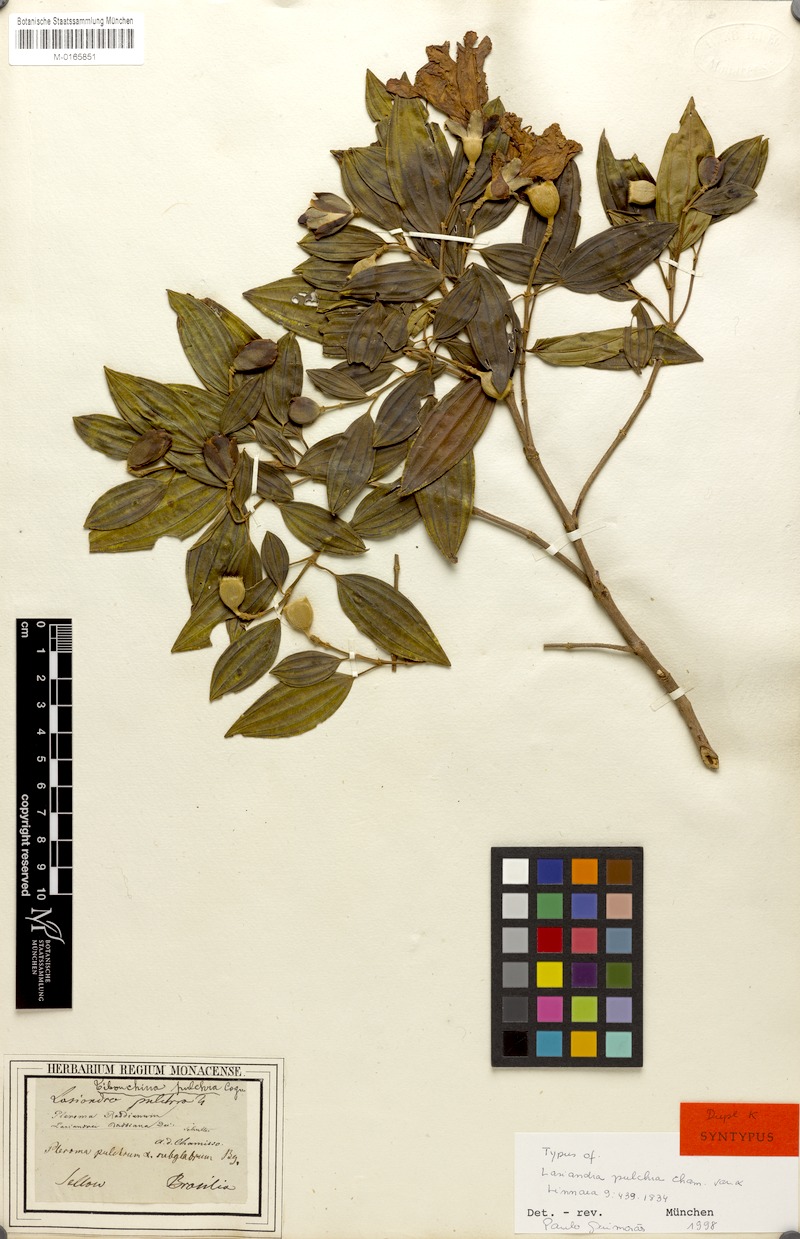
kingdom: Plantae
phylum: Tracheophyta
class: Magnoliopsida
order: Myrtales
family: Melastomataceae
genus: Pleroma
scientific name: Pleroma raddianum
